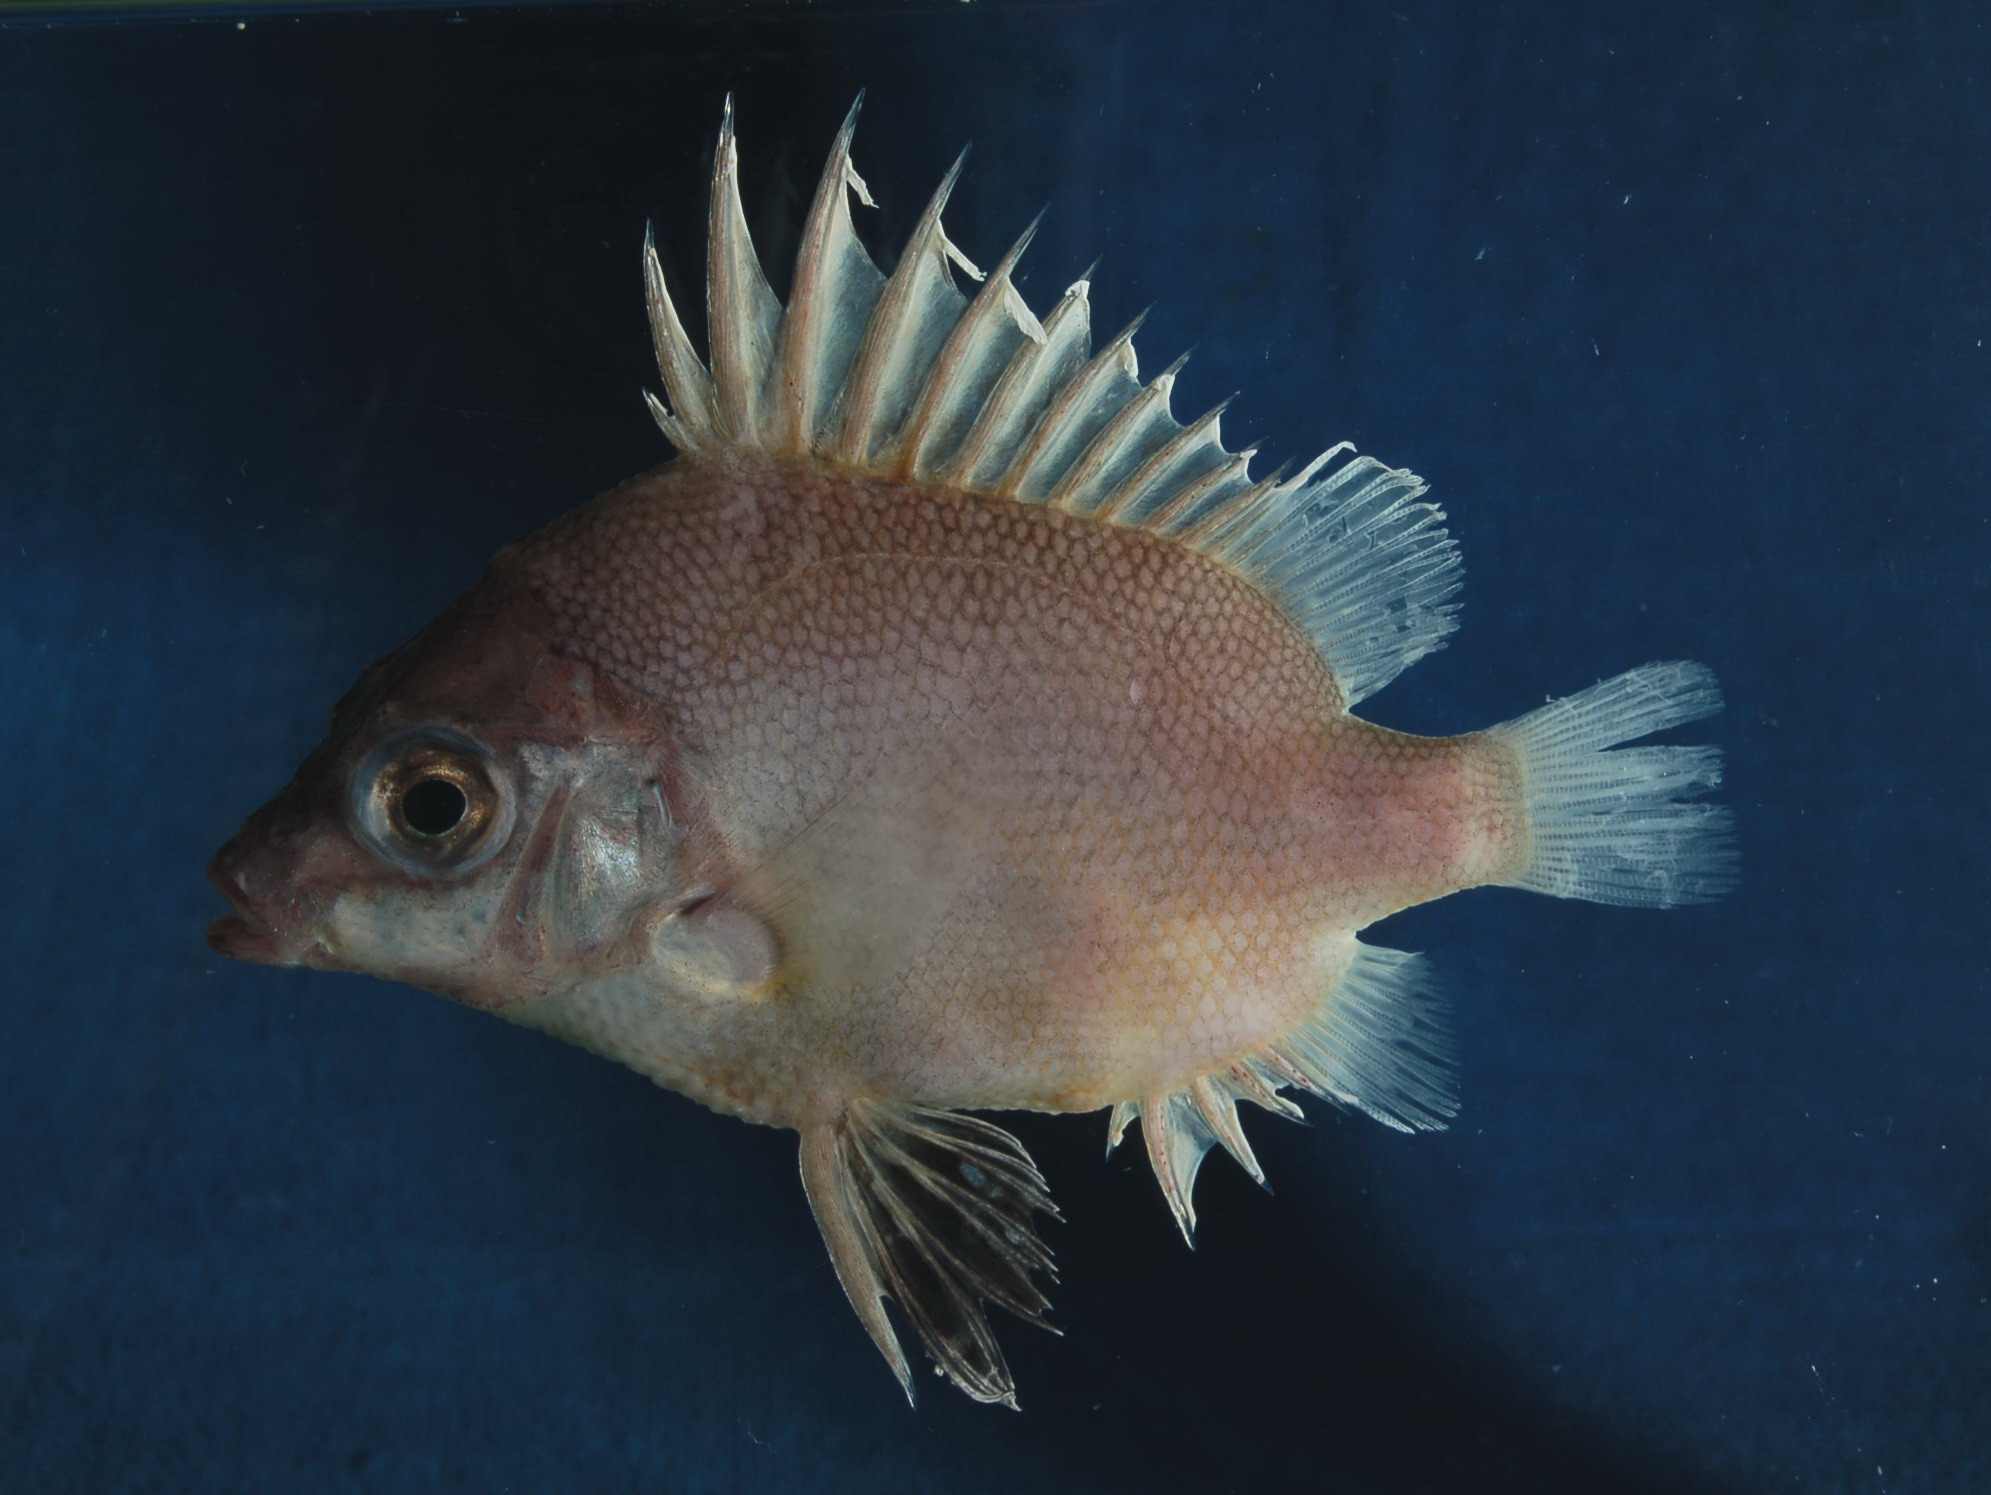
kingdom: Animalia
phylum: Chordata
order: Perciformes
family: Pentacerotidae
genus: Pentaceros
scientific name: Pentaceros capensis
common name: Cape armourhead
